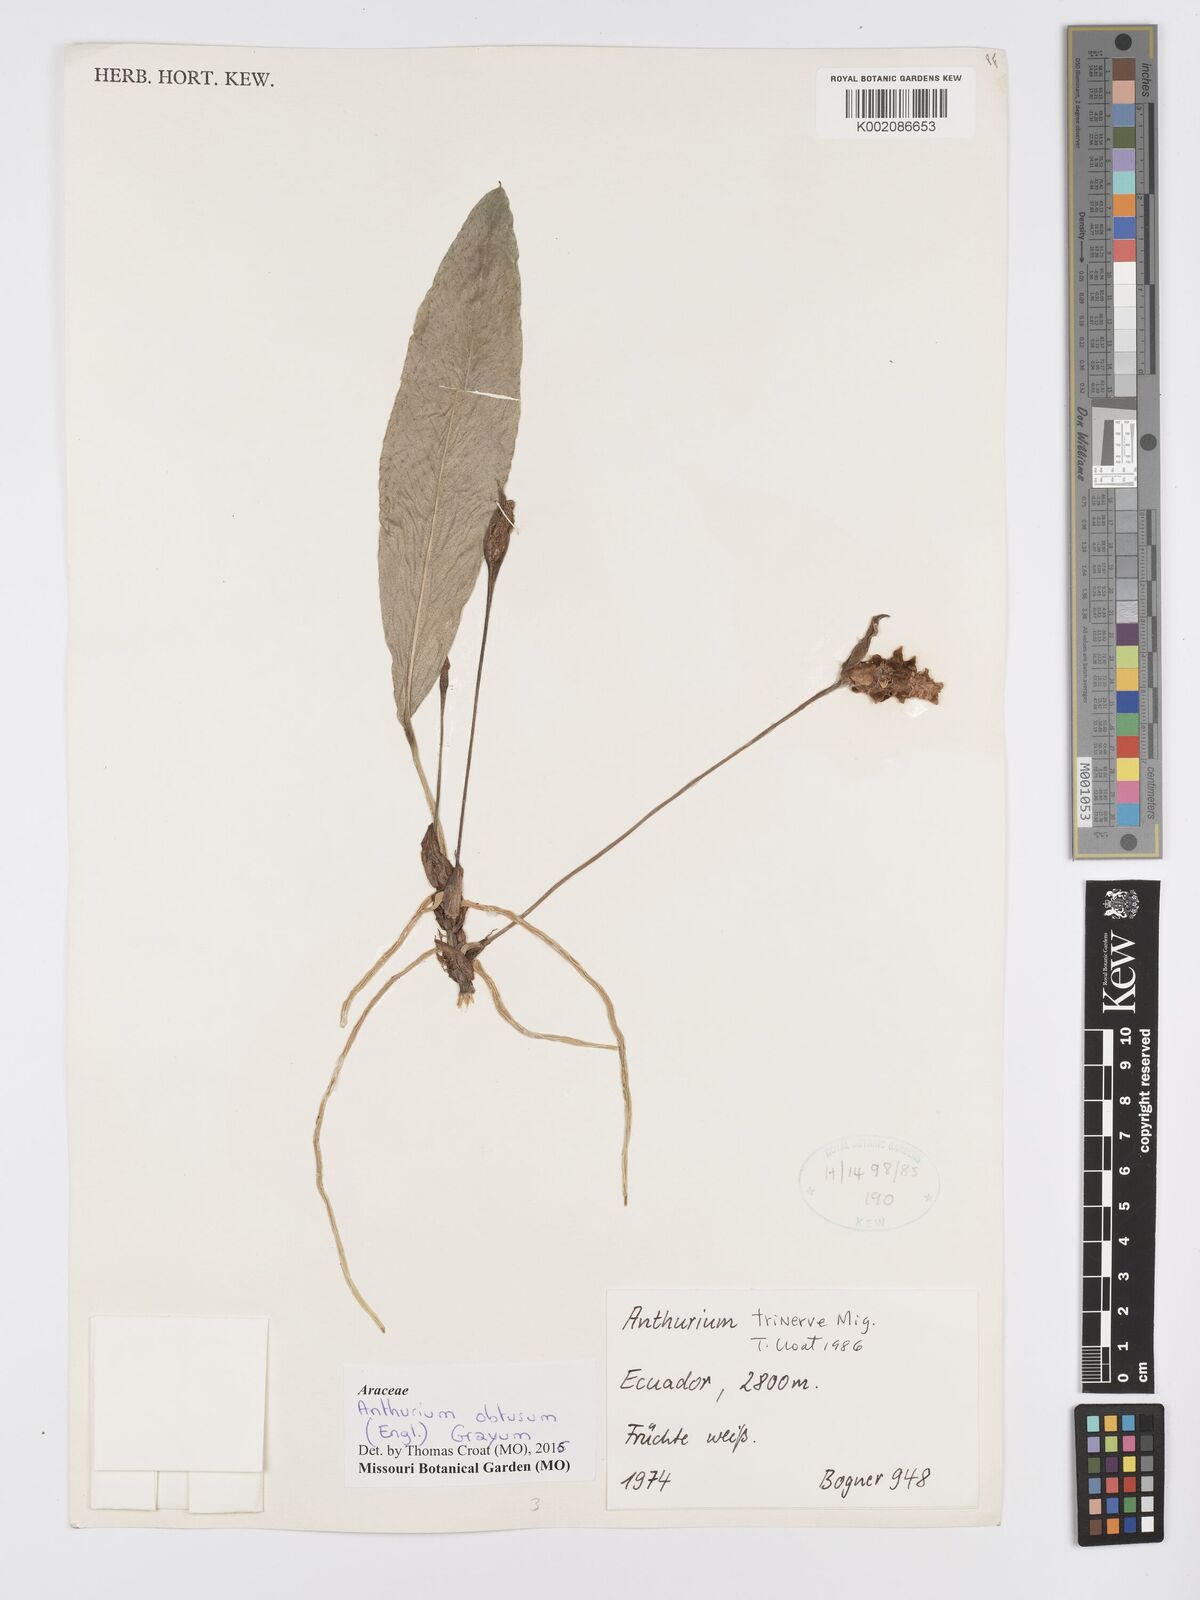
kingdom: Plantae
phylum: Tracheophyta
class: Liliopsida
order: Alismatales
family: Araceae
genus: Anthurium
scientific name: Anthurium obtusum
